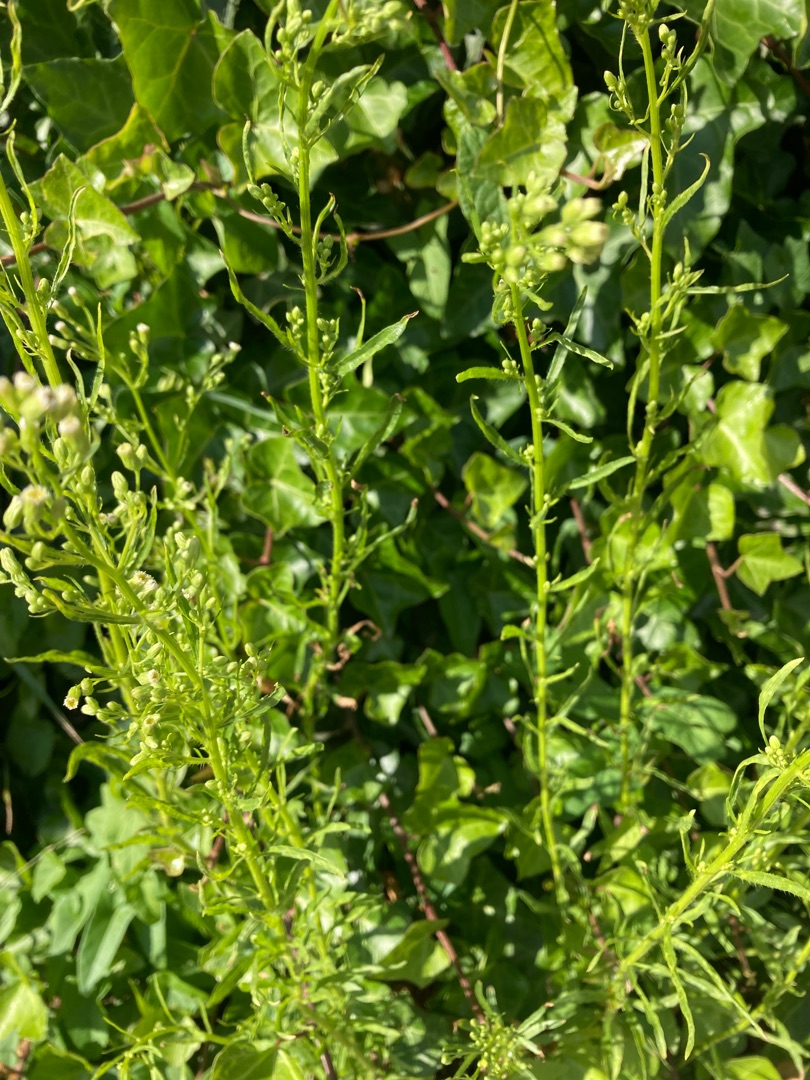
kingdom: Plantae
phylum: Tracheophyta
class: Magnoliopsida
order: Asterales
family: Asteraceae
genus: Erigeron
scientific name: Erigeron canadensis
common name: Kanadisk bakkestjerne
